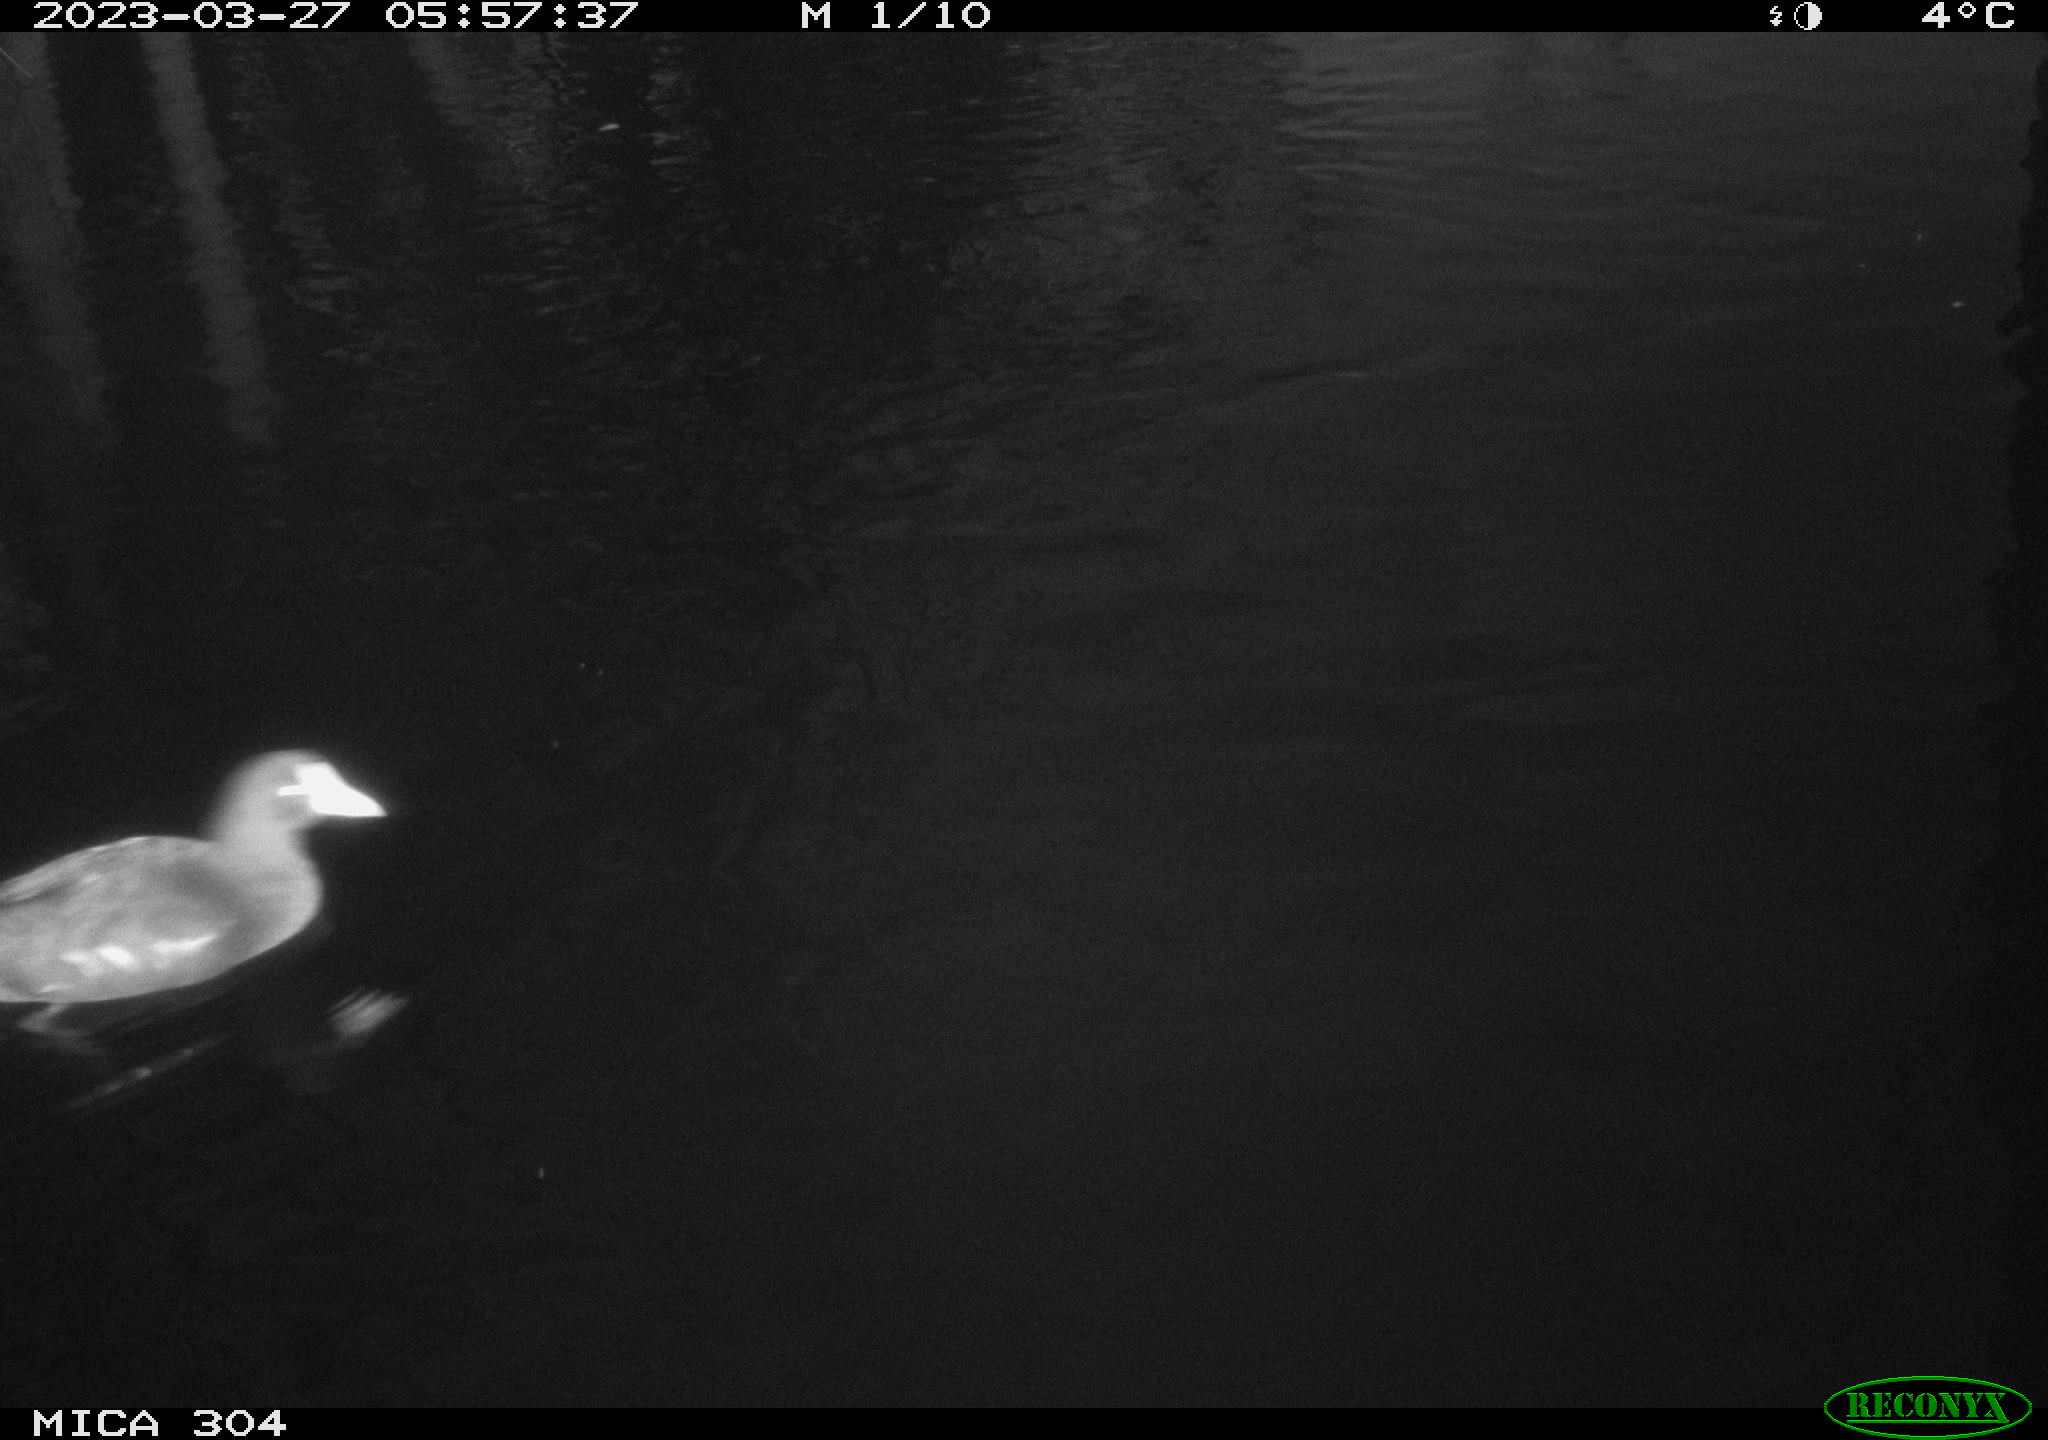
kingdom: Animalia
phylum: Chordata
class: Aves
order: Gruiformes
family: Rallidae
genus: Gallinula
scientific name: Gallinula chloropus
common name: Common moorhen
